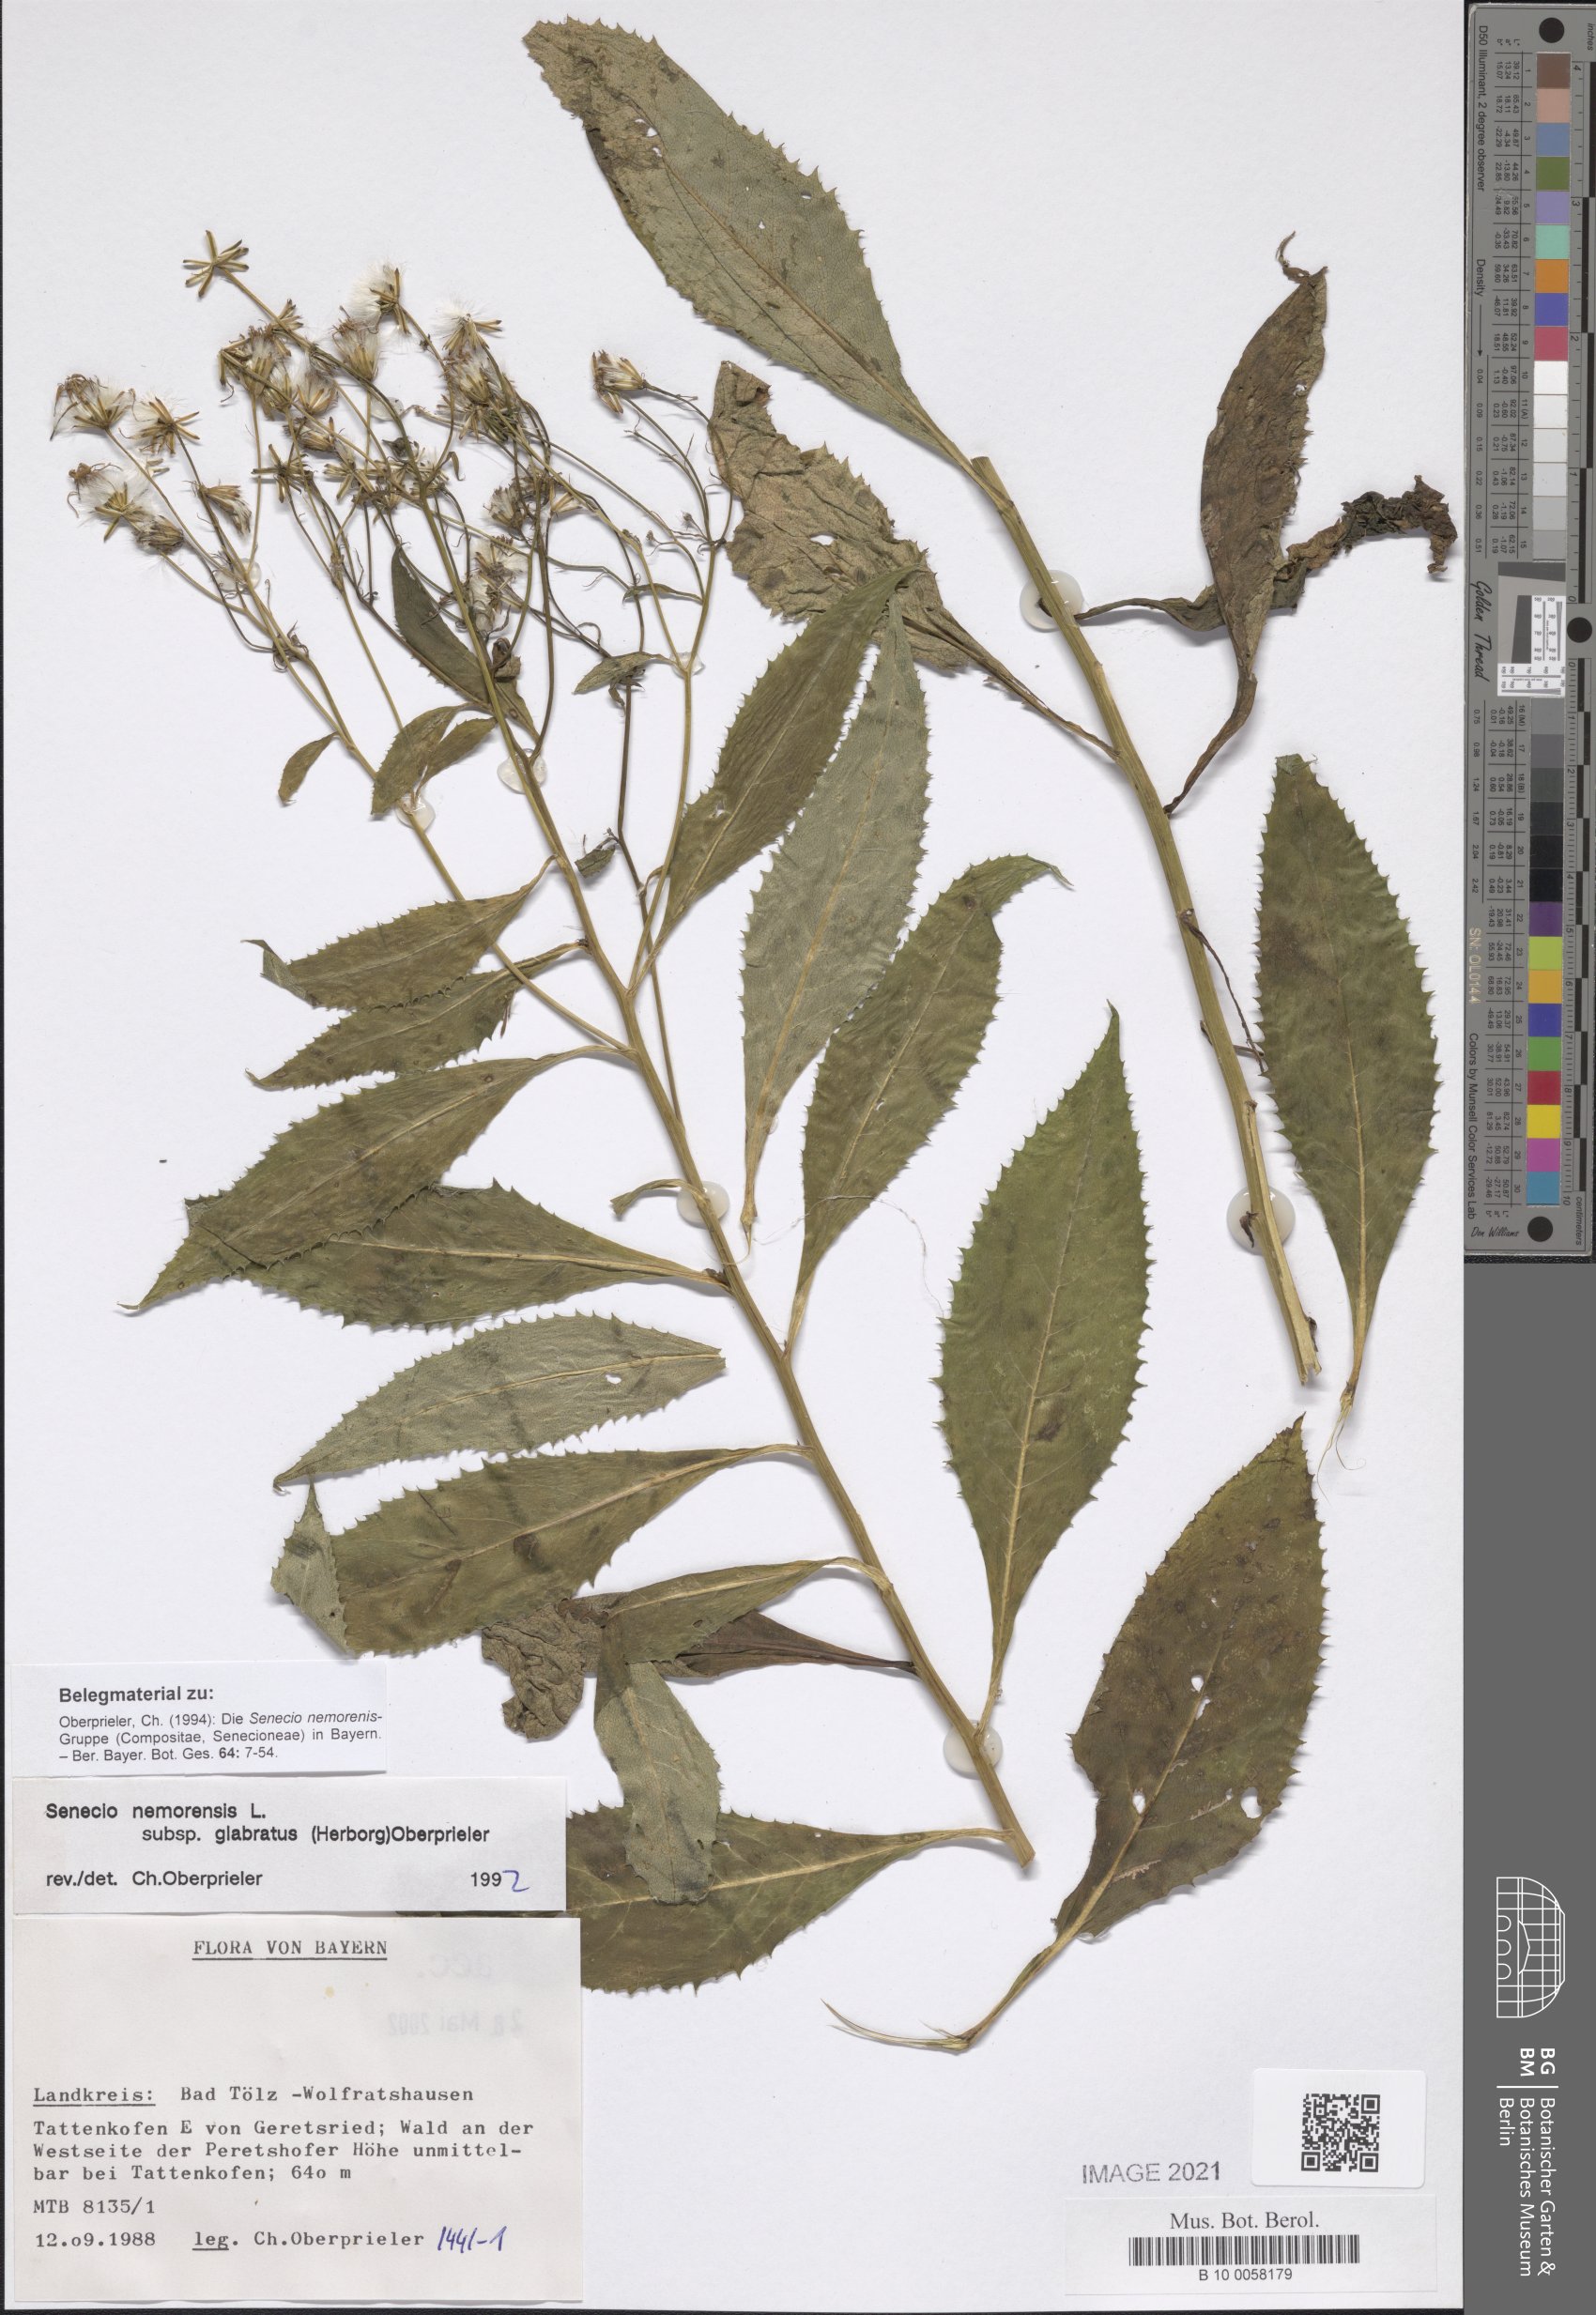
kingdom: Plantae
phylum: Tracheophyta
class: Magnoliopsida
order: Asterales
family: Asteraceae
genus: Senecio
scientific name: Senecio germanicus
